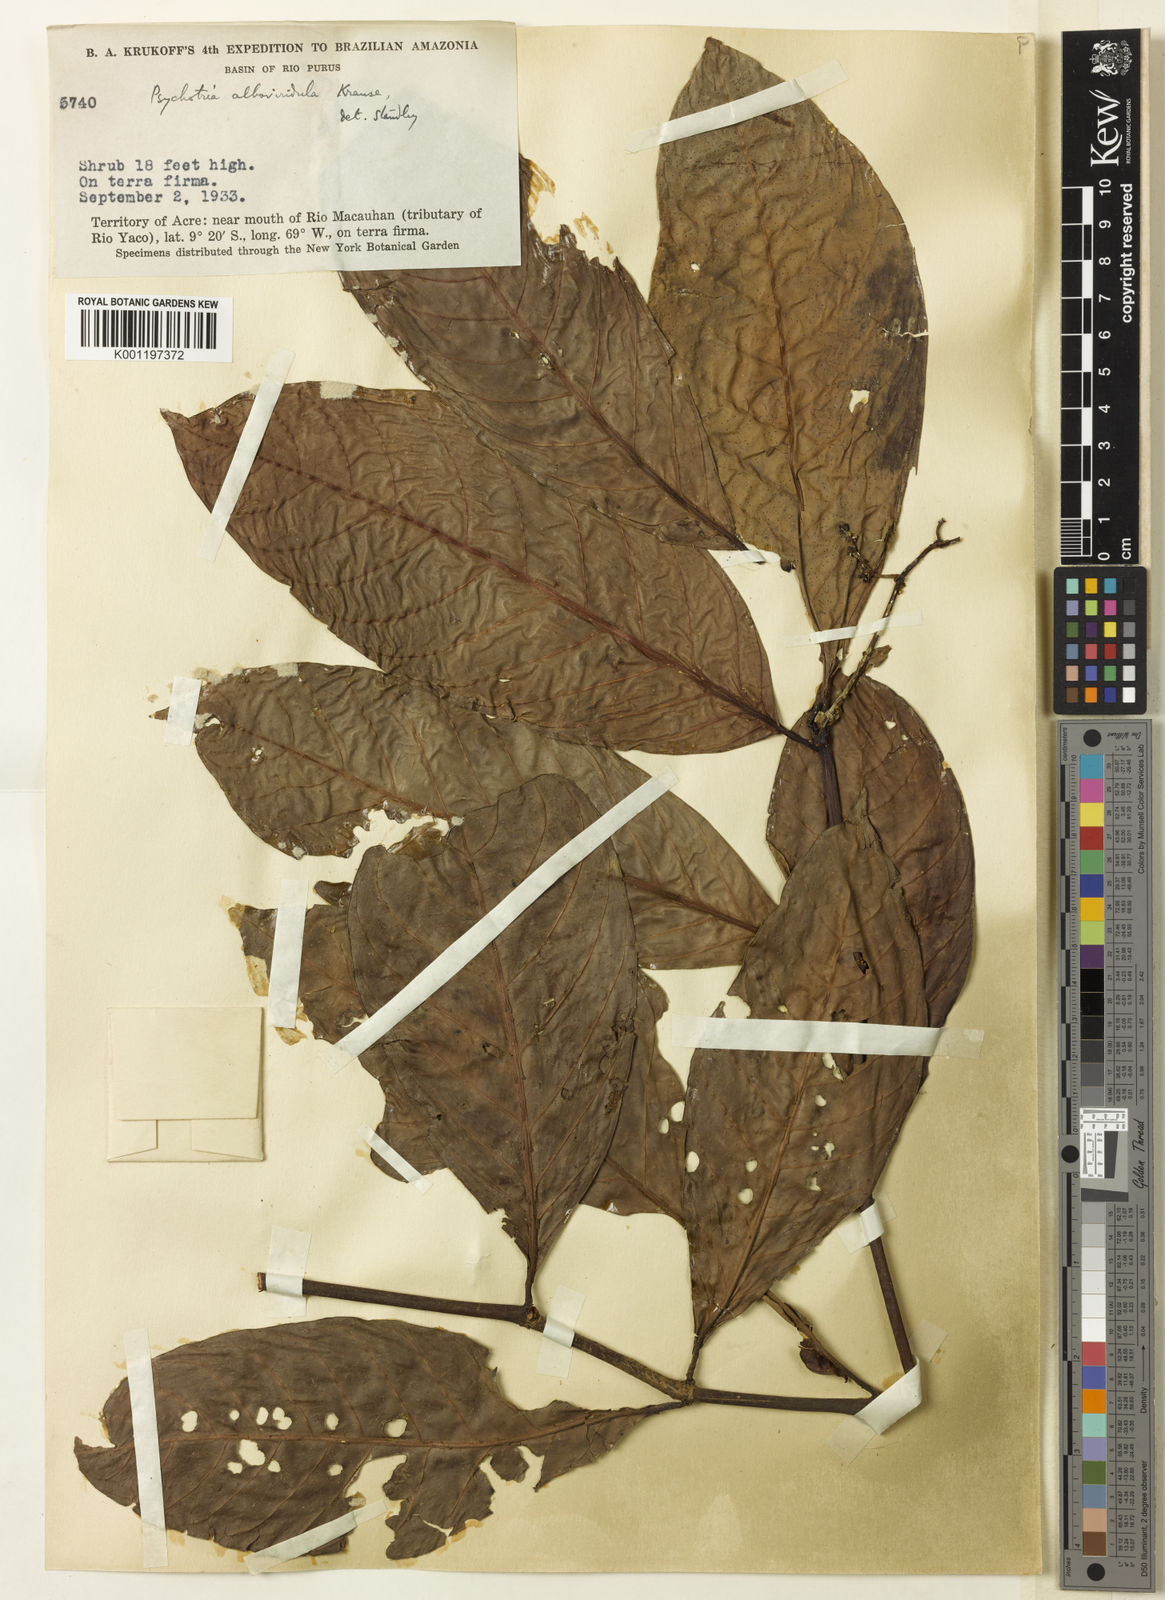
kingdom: Plantae
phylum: Tracheophyta
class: Magnoliopsida
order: Gentianales
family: Rubiaceae
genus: Psychotria
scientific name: Psychotria remota
